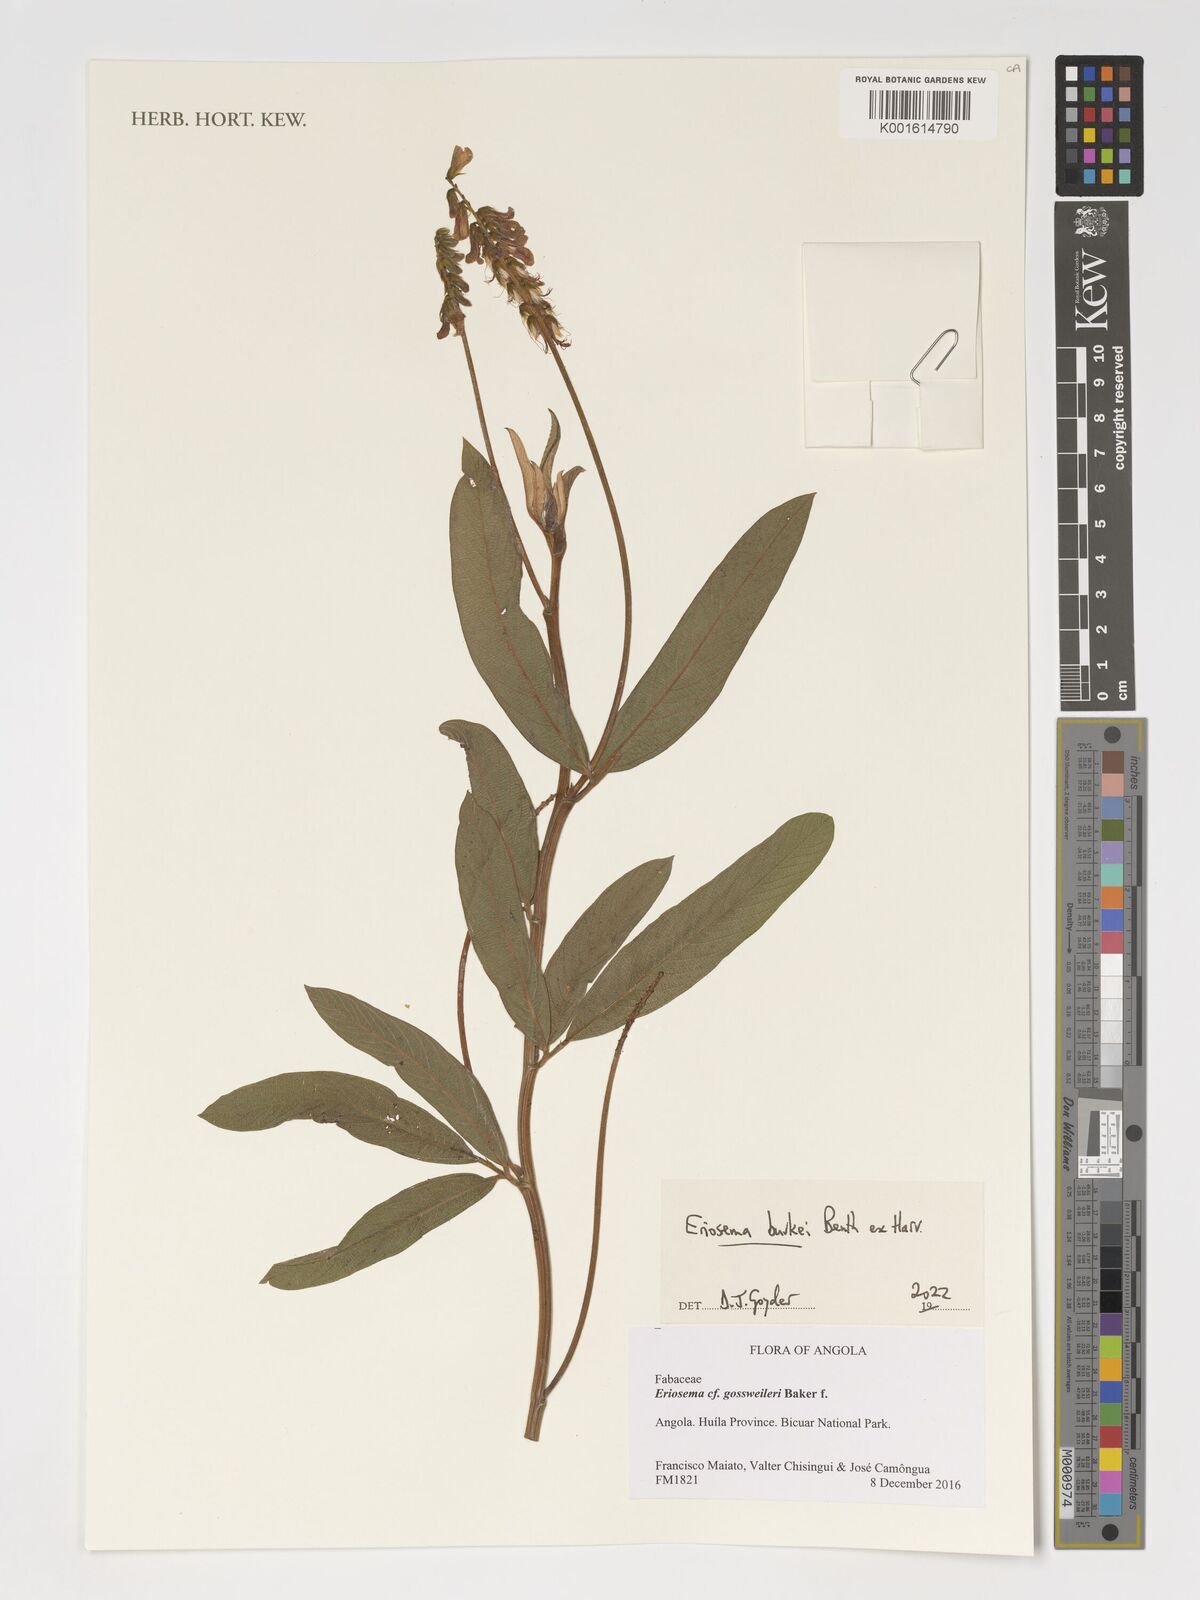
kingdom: Plantae
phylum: Tracheophyta
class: Magnoliopsida
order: Fabales
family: Fabaceae
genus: Eriosema
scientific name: Eriosema burkei
